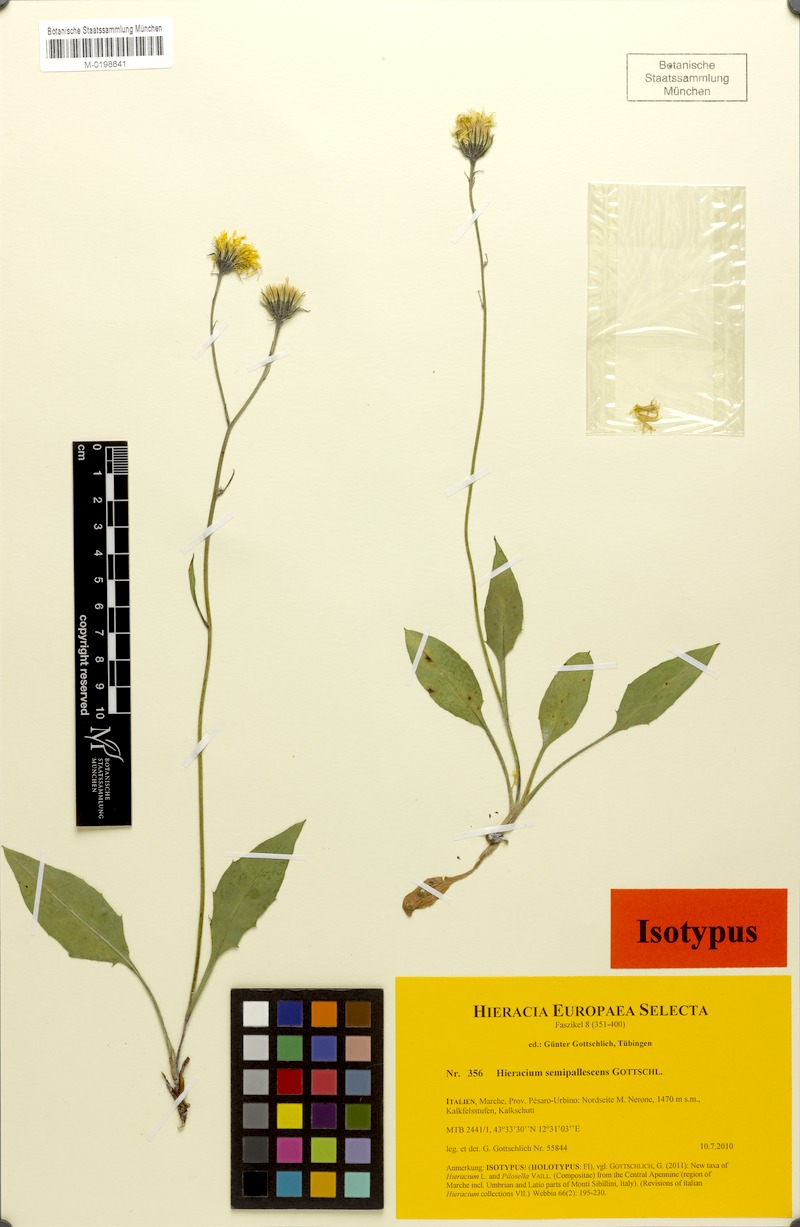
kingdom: Plantae
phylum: Tracheophyta
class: Magnoliopsida
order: Asterales
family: Asteraceae
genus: Hieracium
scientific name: Hieracium semipallescens
